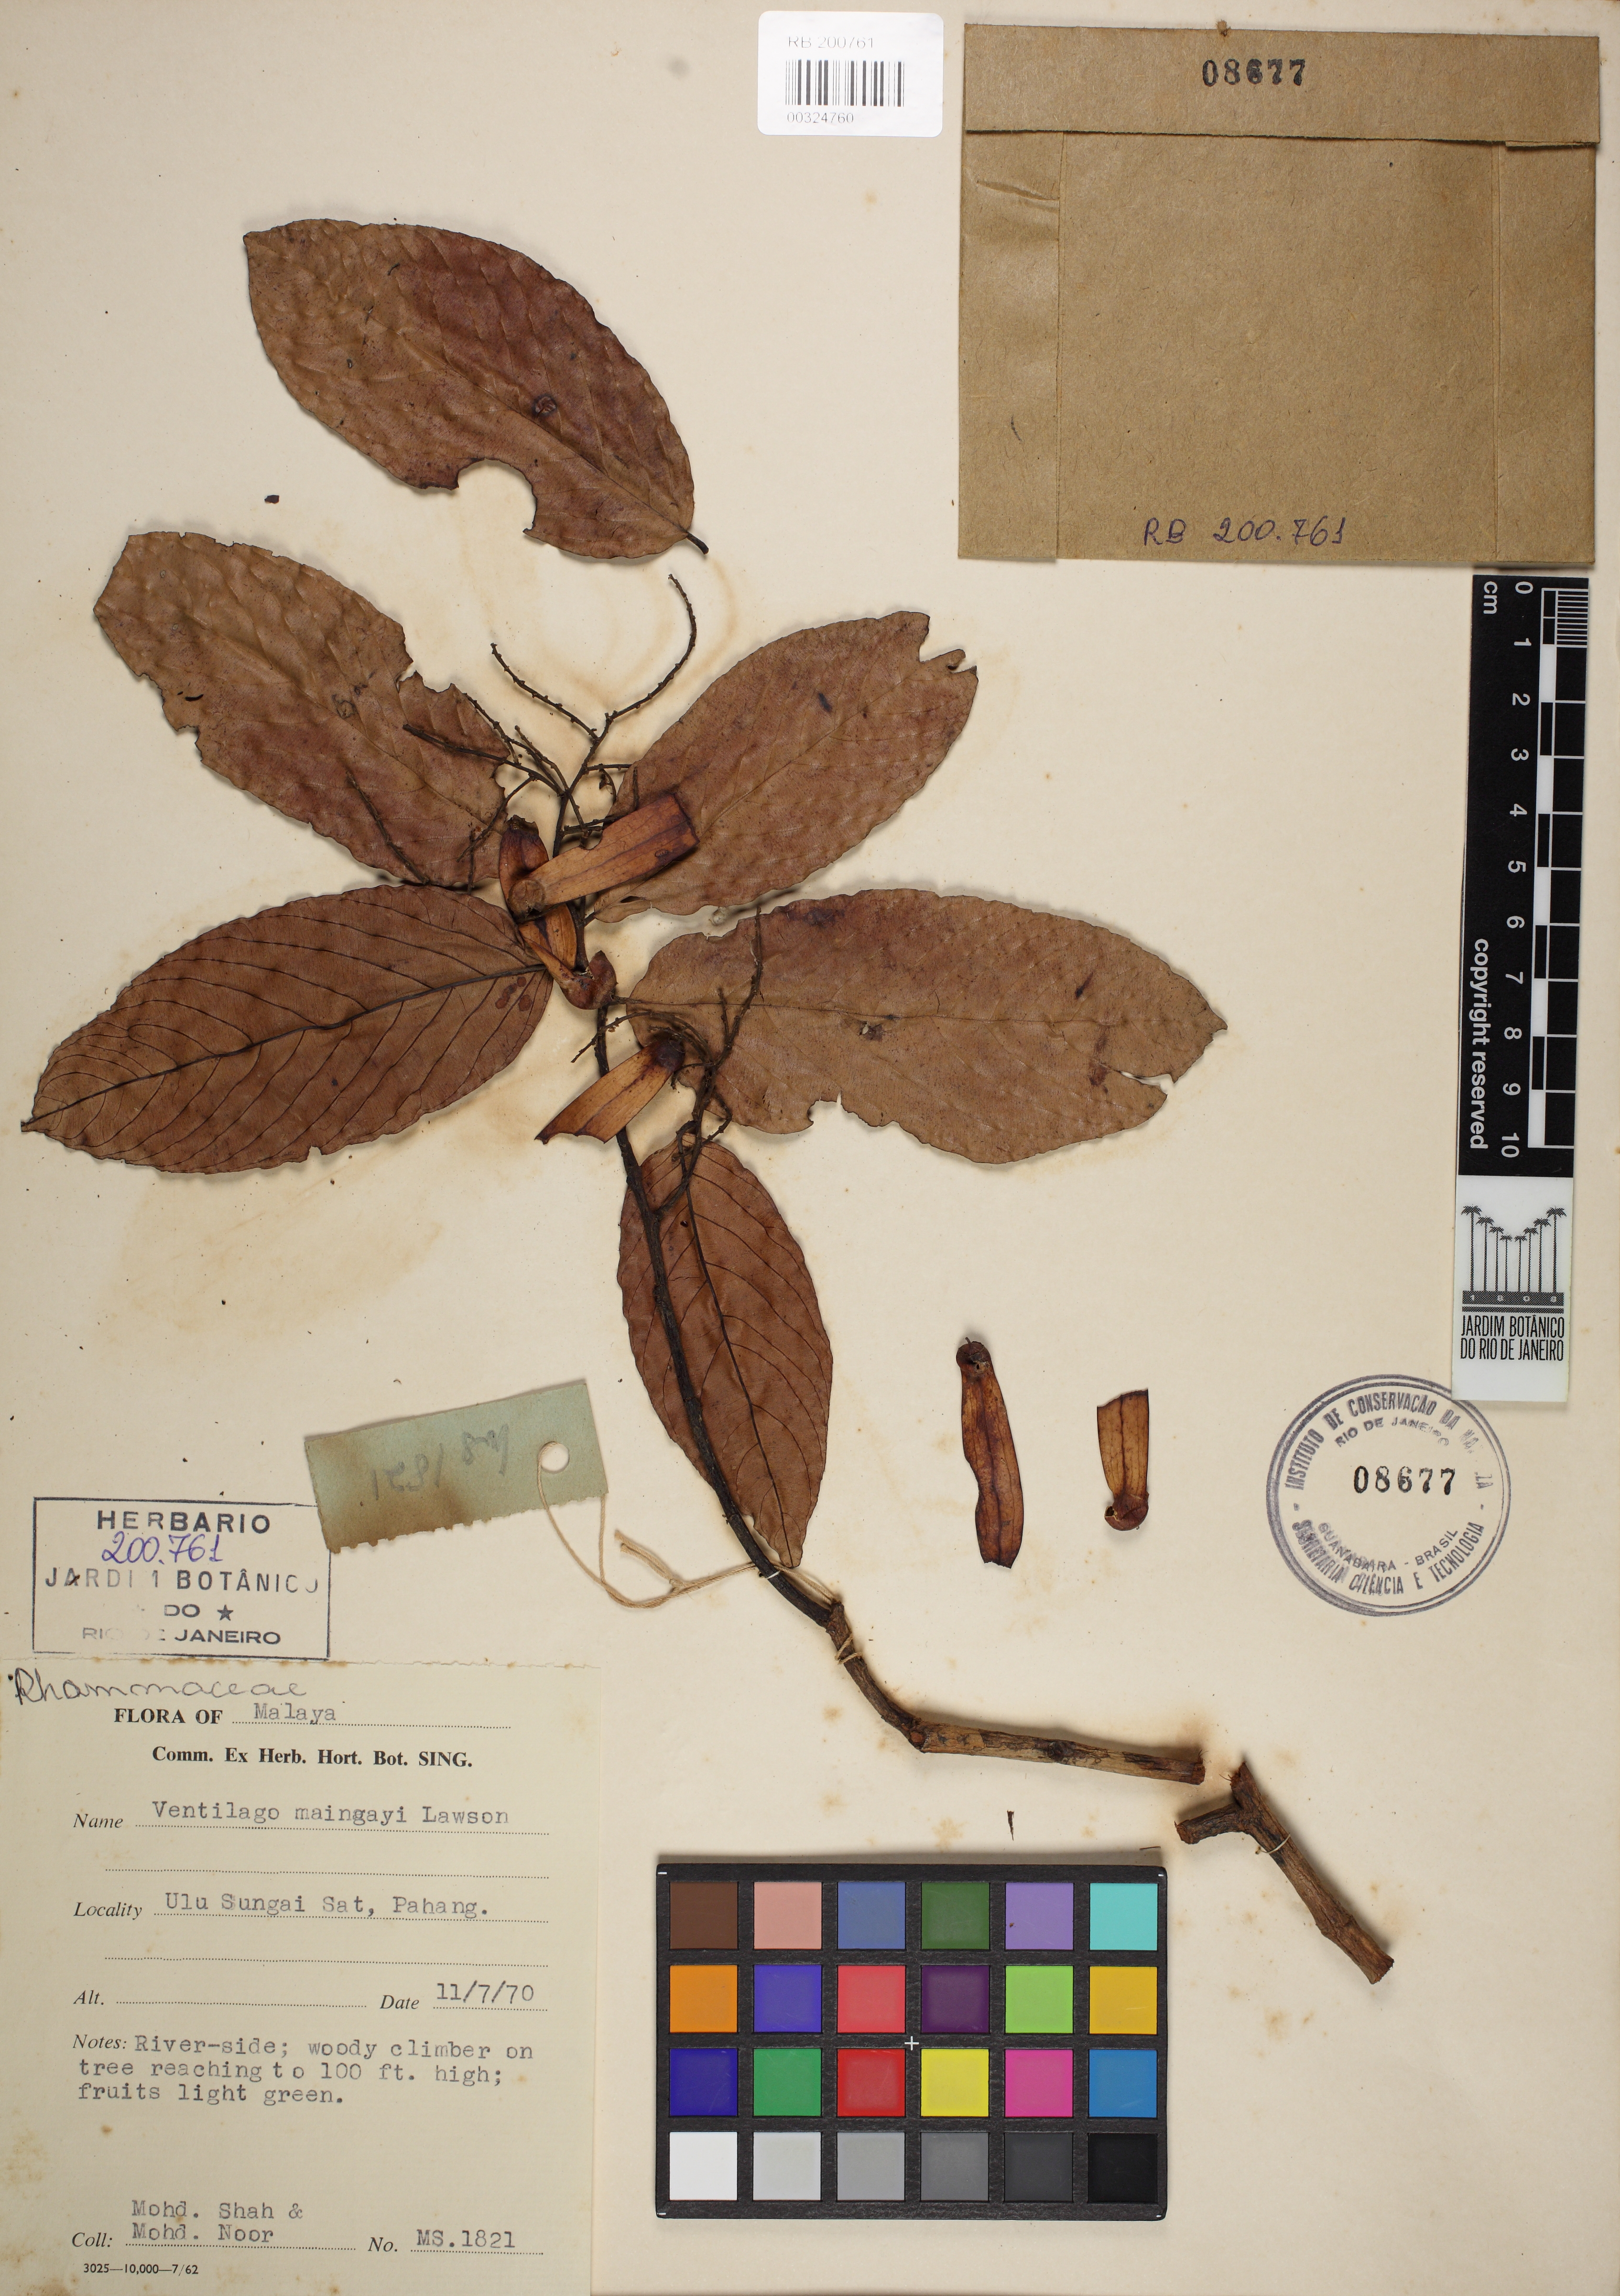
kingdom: Plantae
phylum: Tracheophyta
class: Magnoliopsida
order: Rosales
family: Rhamnaceae
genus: Ventilago
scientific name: Ventilago maingayi
